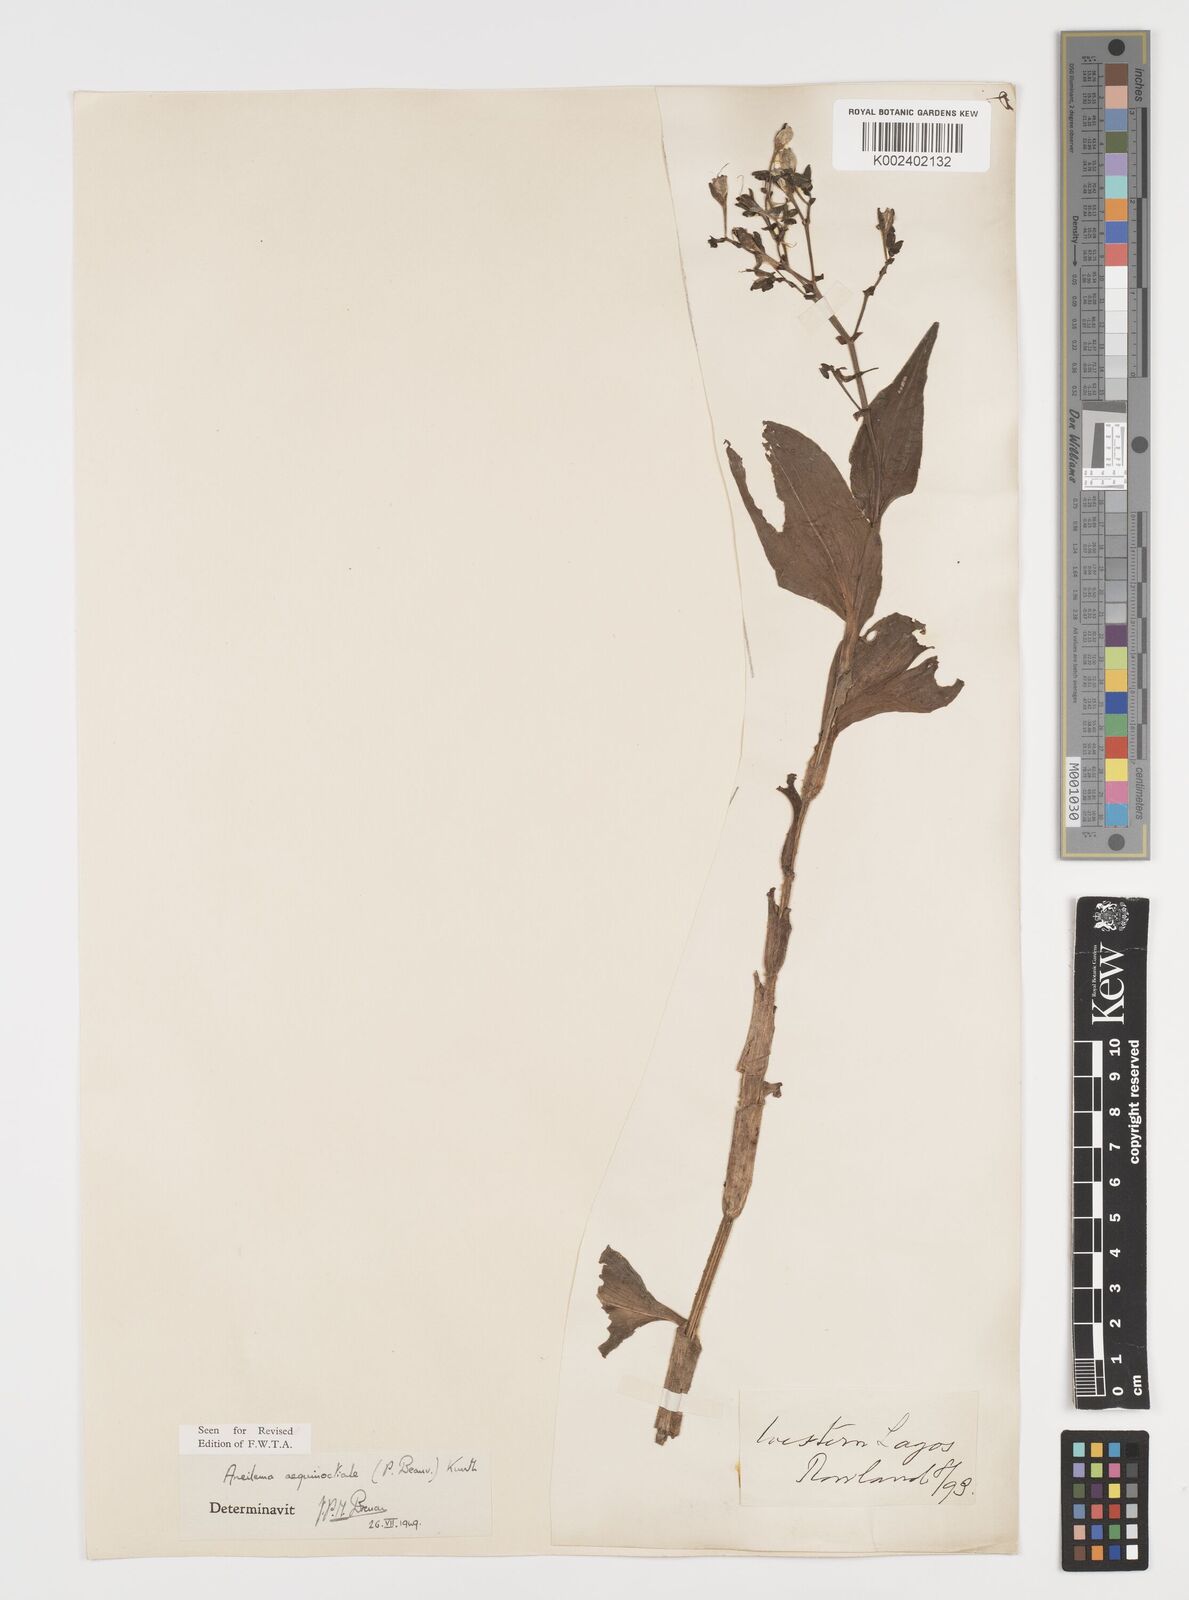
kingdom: Plantae
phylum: Tracheophyta
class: Liliopsida
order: Commelinales
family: Commelinaceae
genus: Aneilema
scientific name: Aneilema aequinoctiale
